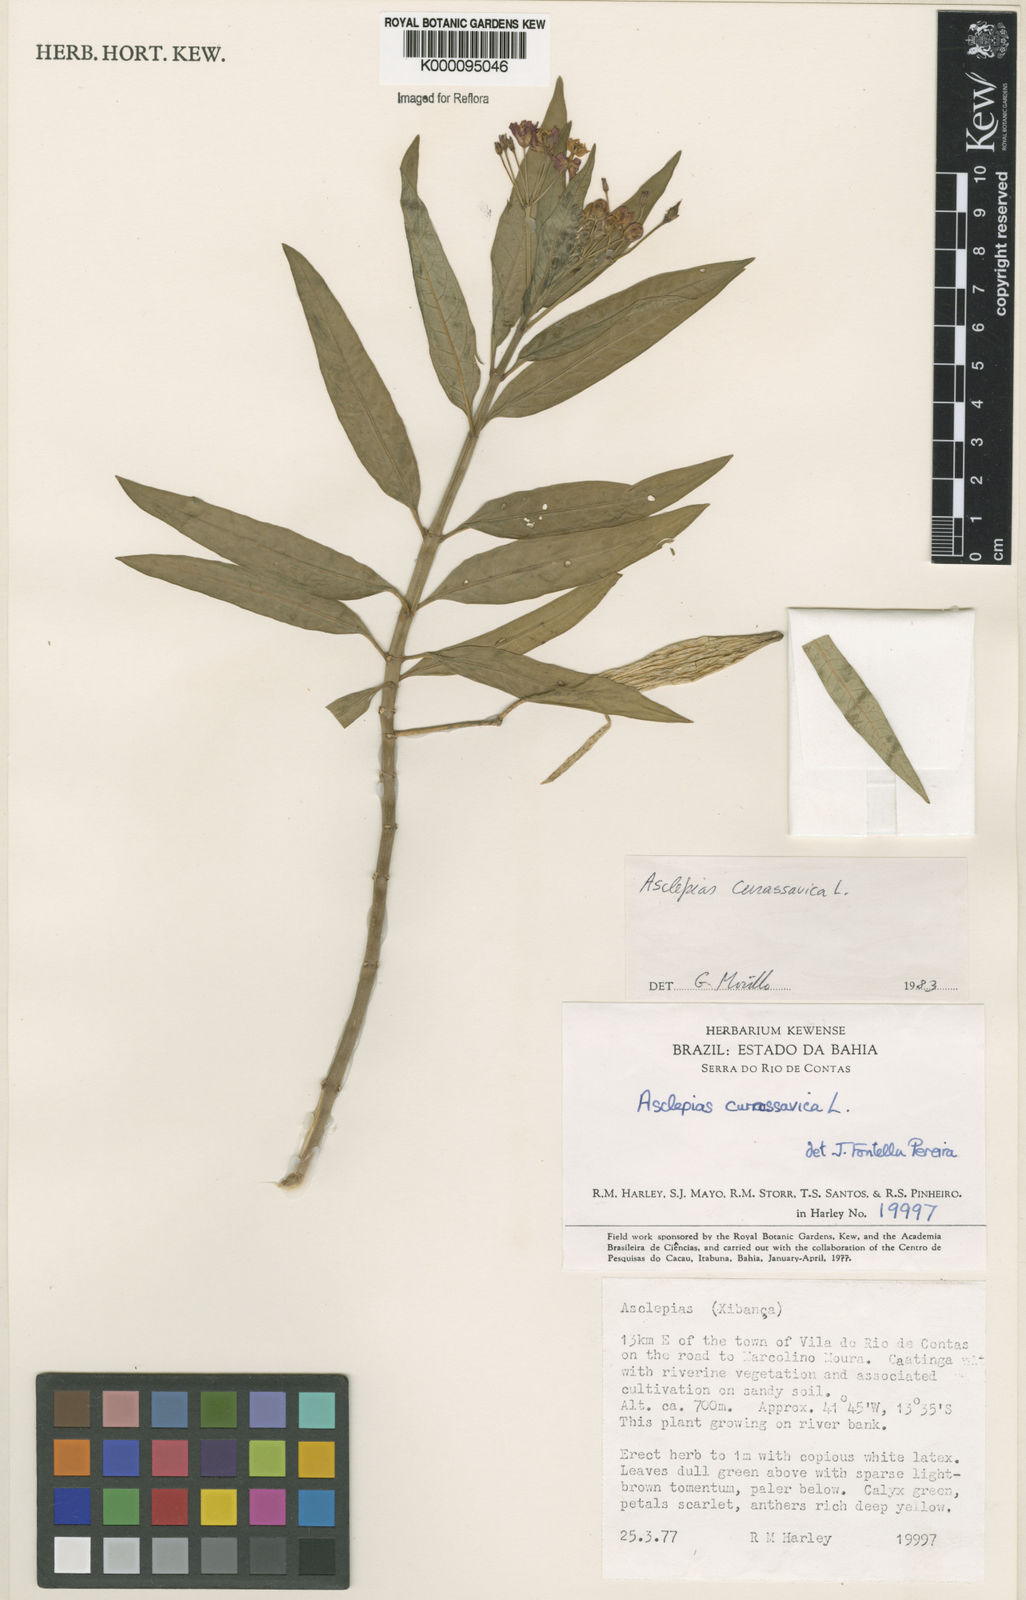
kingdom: Plantae
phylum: Tracheophyta
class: Magnoliopsida
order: Gentianales
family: Apocynaceae
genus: Asclepias
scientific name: Asclepias curassavica
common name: Bloodflower
